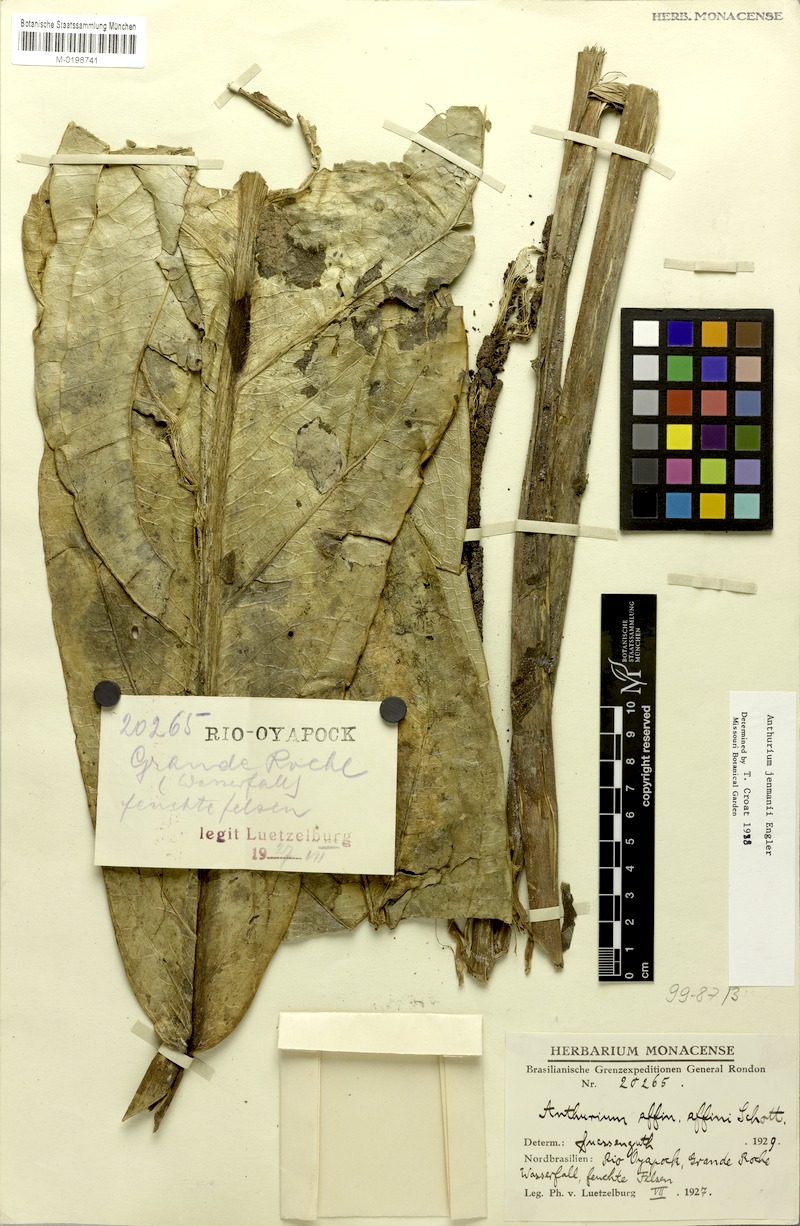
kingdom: Plantae
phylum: Tracheophyta
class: Liliopsida
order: Alismatales
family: Araceae
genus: Anthurium
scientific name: Anthurium jenmanii
